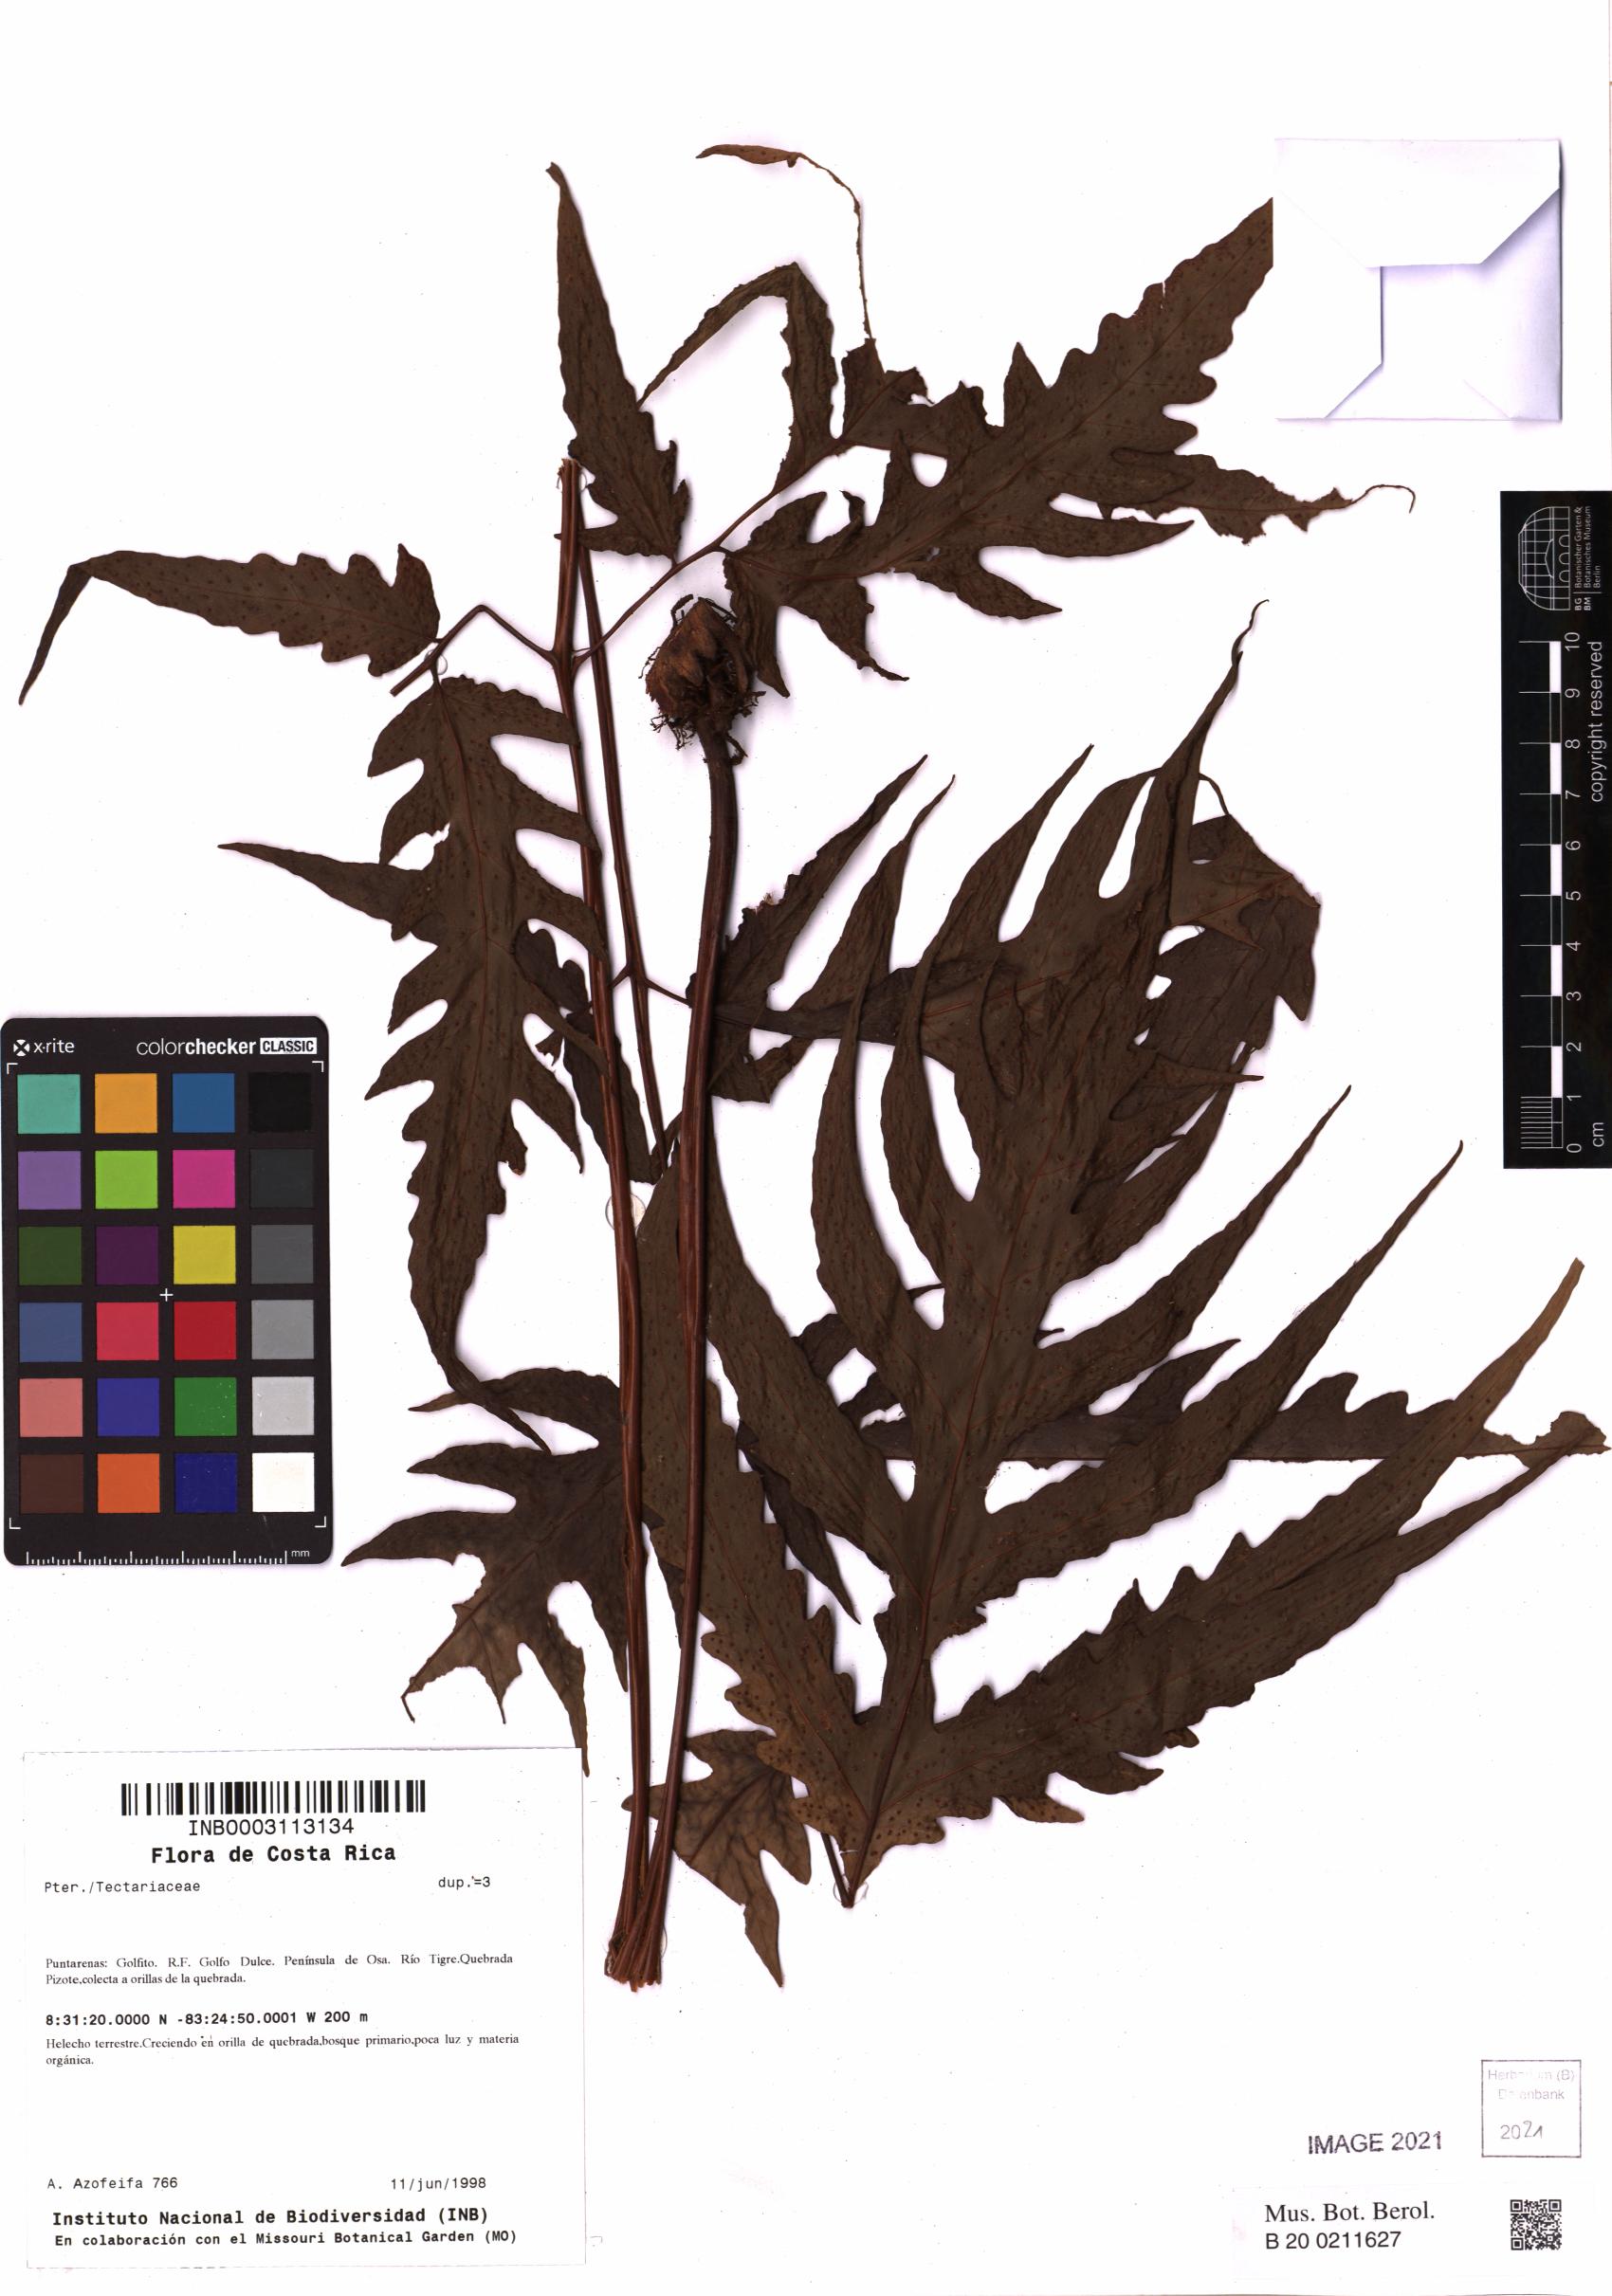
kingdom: Plantae
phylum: Tracheophyta
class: Polypodiopsida
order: Polypodiales
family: Tectariaceae
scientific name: Tectariaceae
